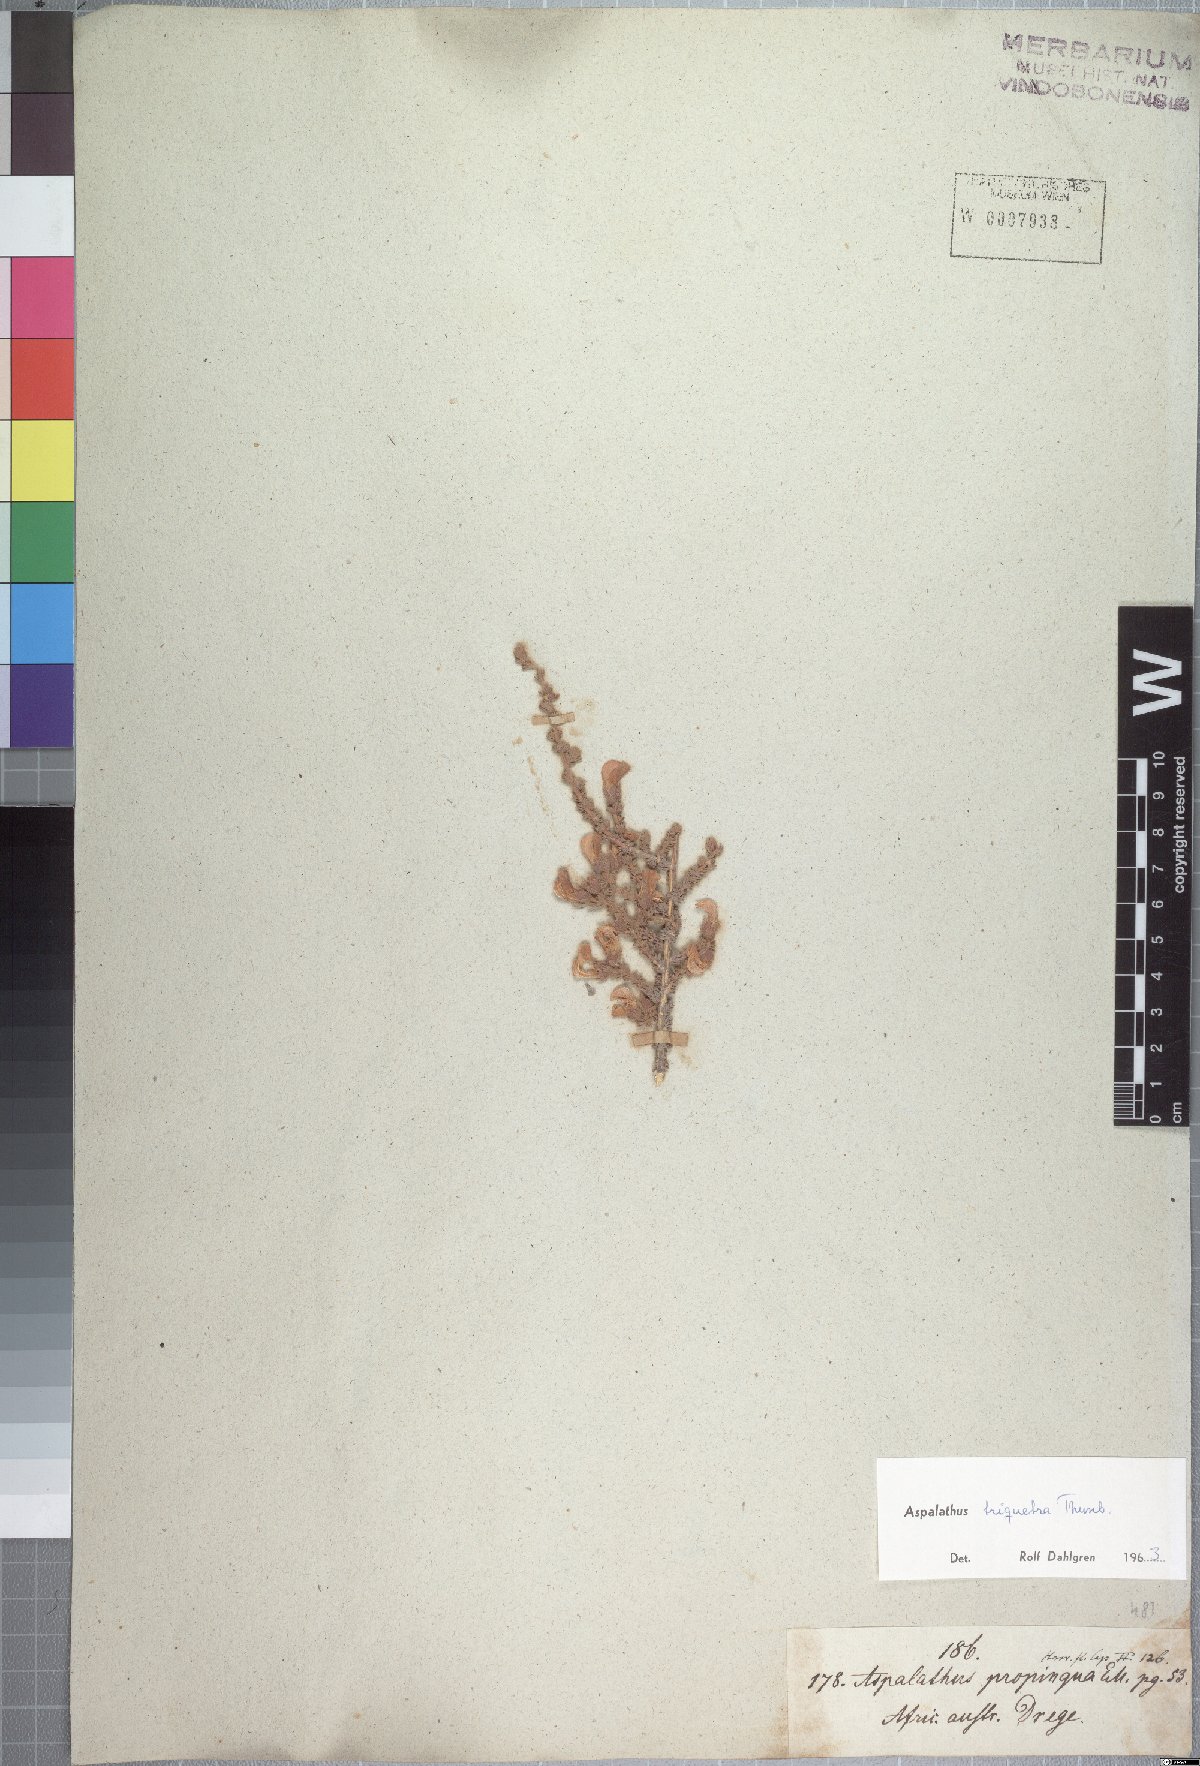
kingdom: Plantae
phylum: Tracheophyta
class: Magnoliopsida
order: Fabales
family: Fabaceae
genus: Aspalathus
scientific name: Aspalathus triquetra
